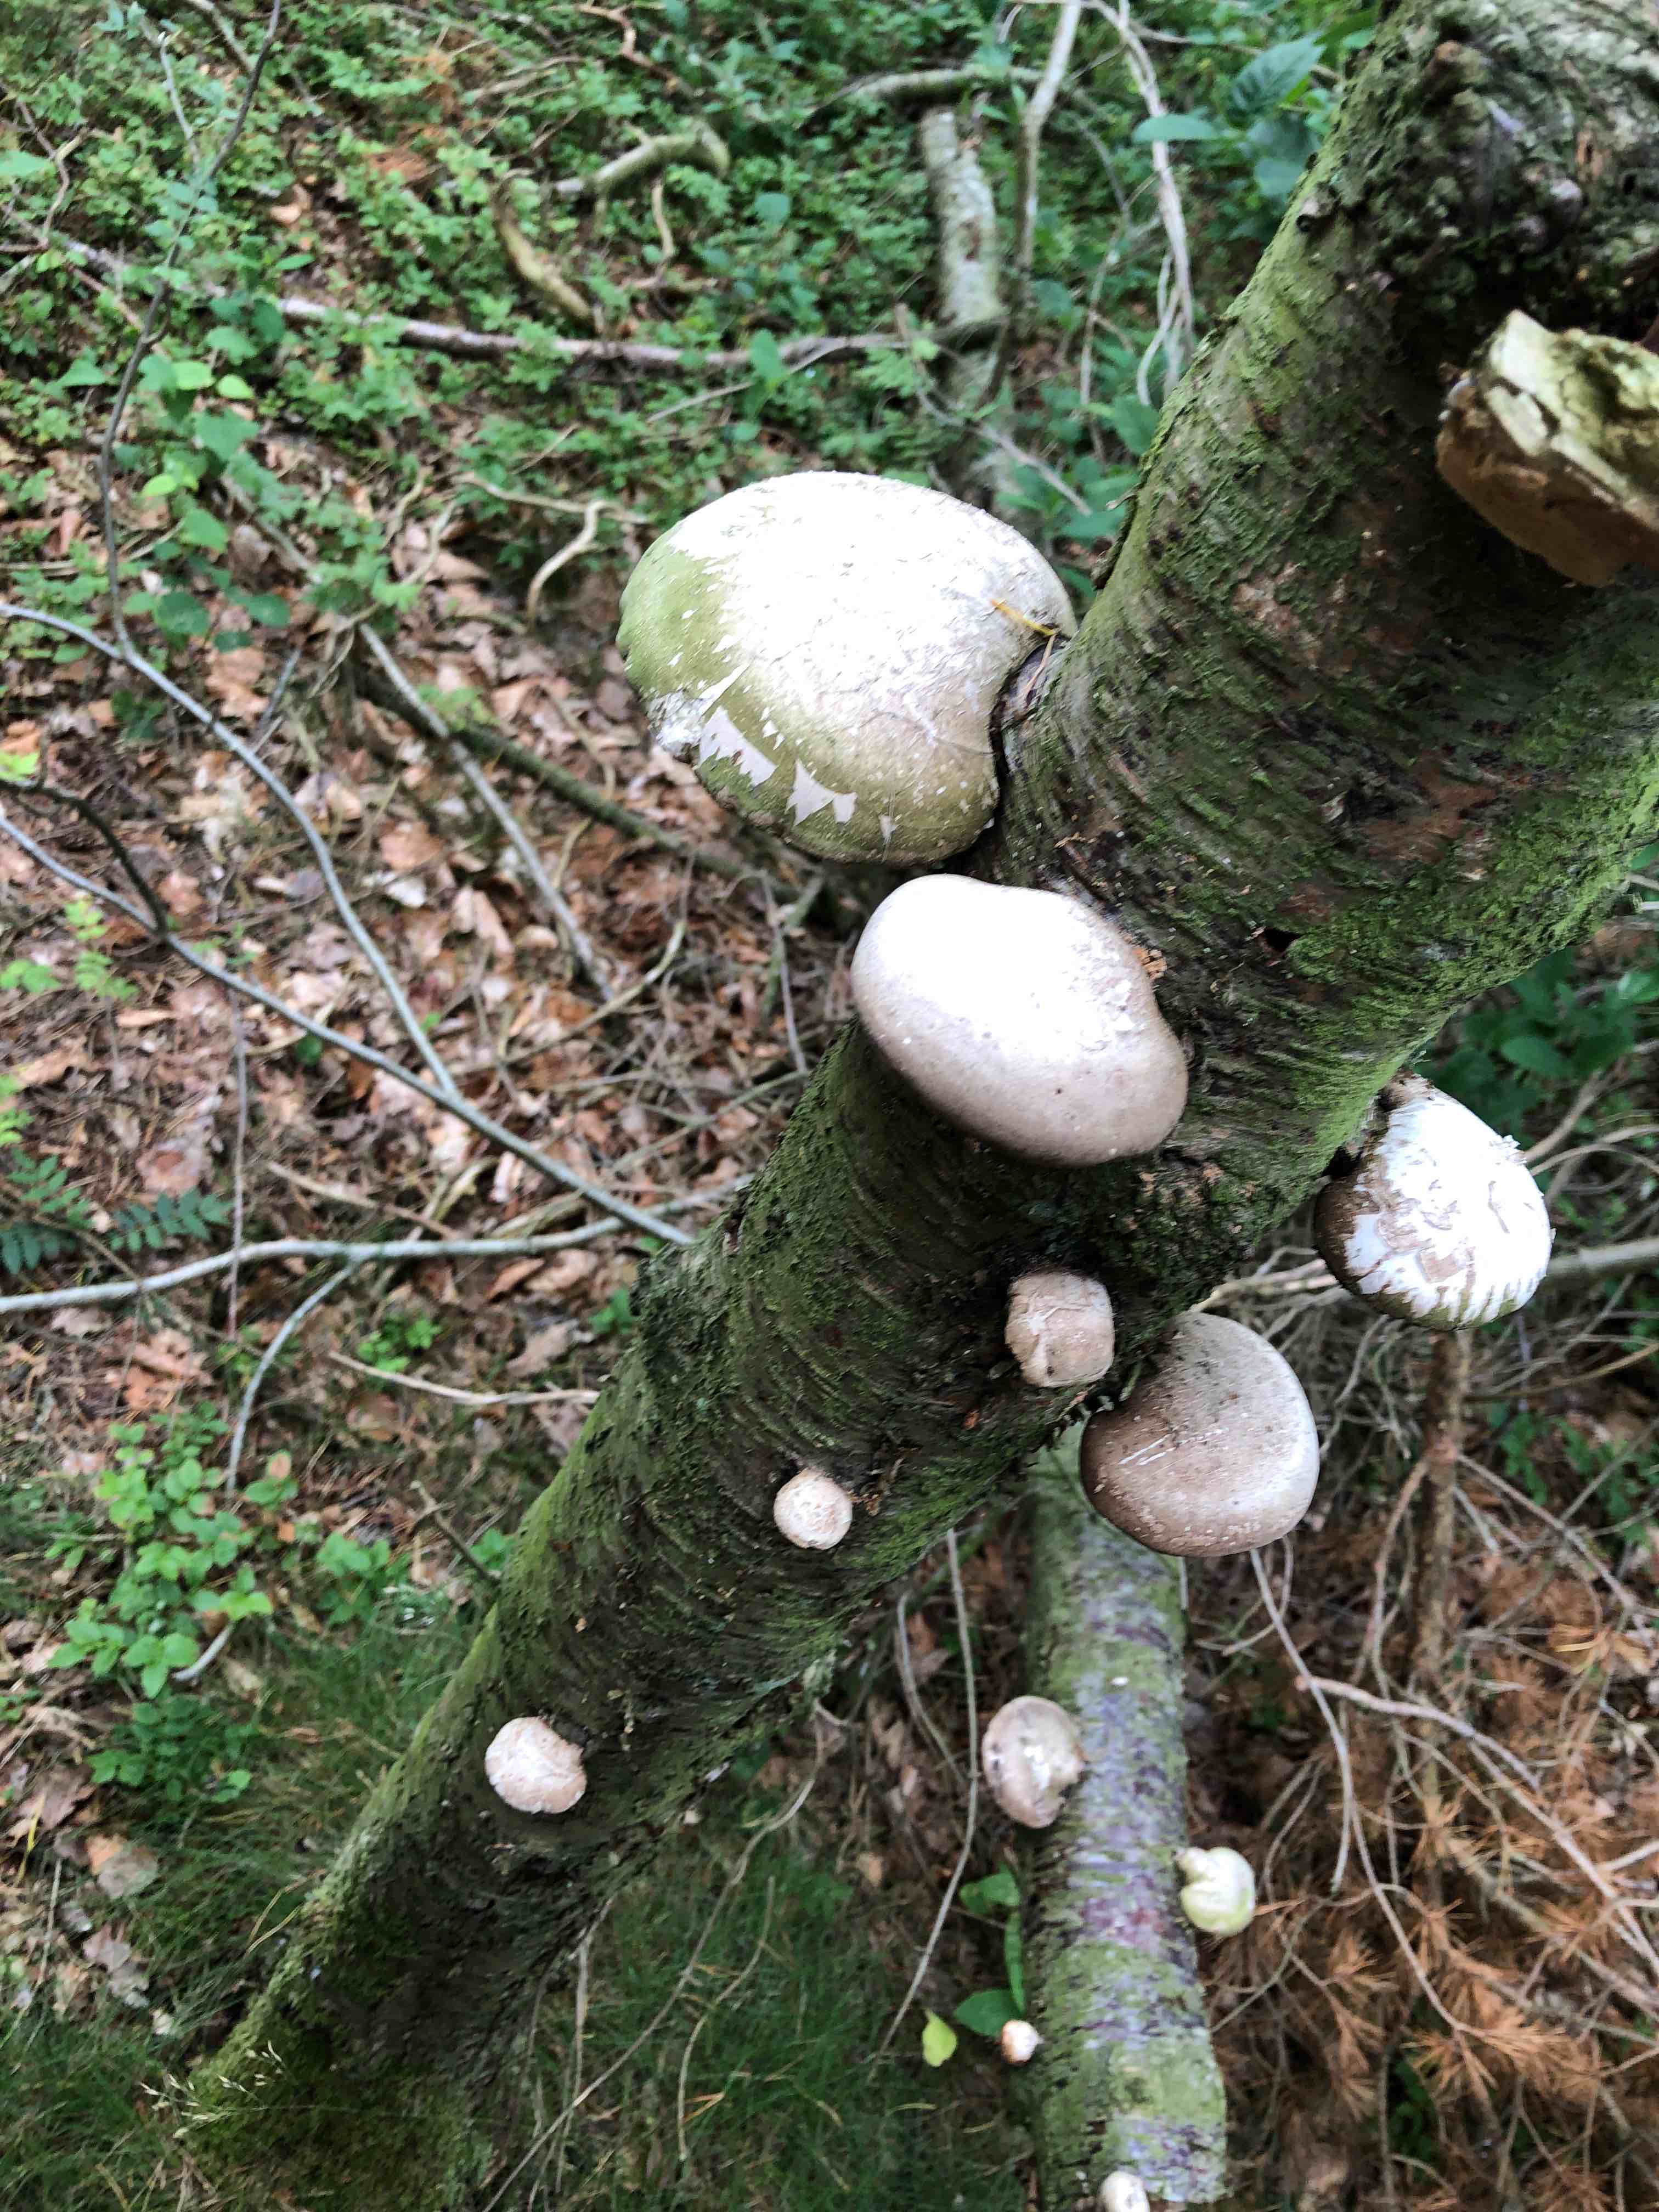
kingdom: Fungi
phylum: Basidiomycota
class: Agaricomycetes
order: Polyporales
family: Fomitopsidaceae
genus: Fomitopsis
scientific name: Fomitopsis betulina
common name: birkeporesvamp
